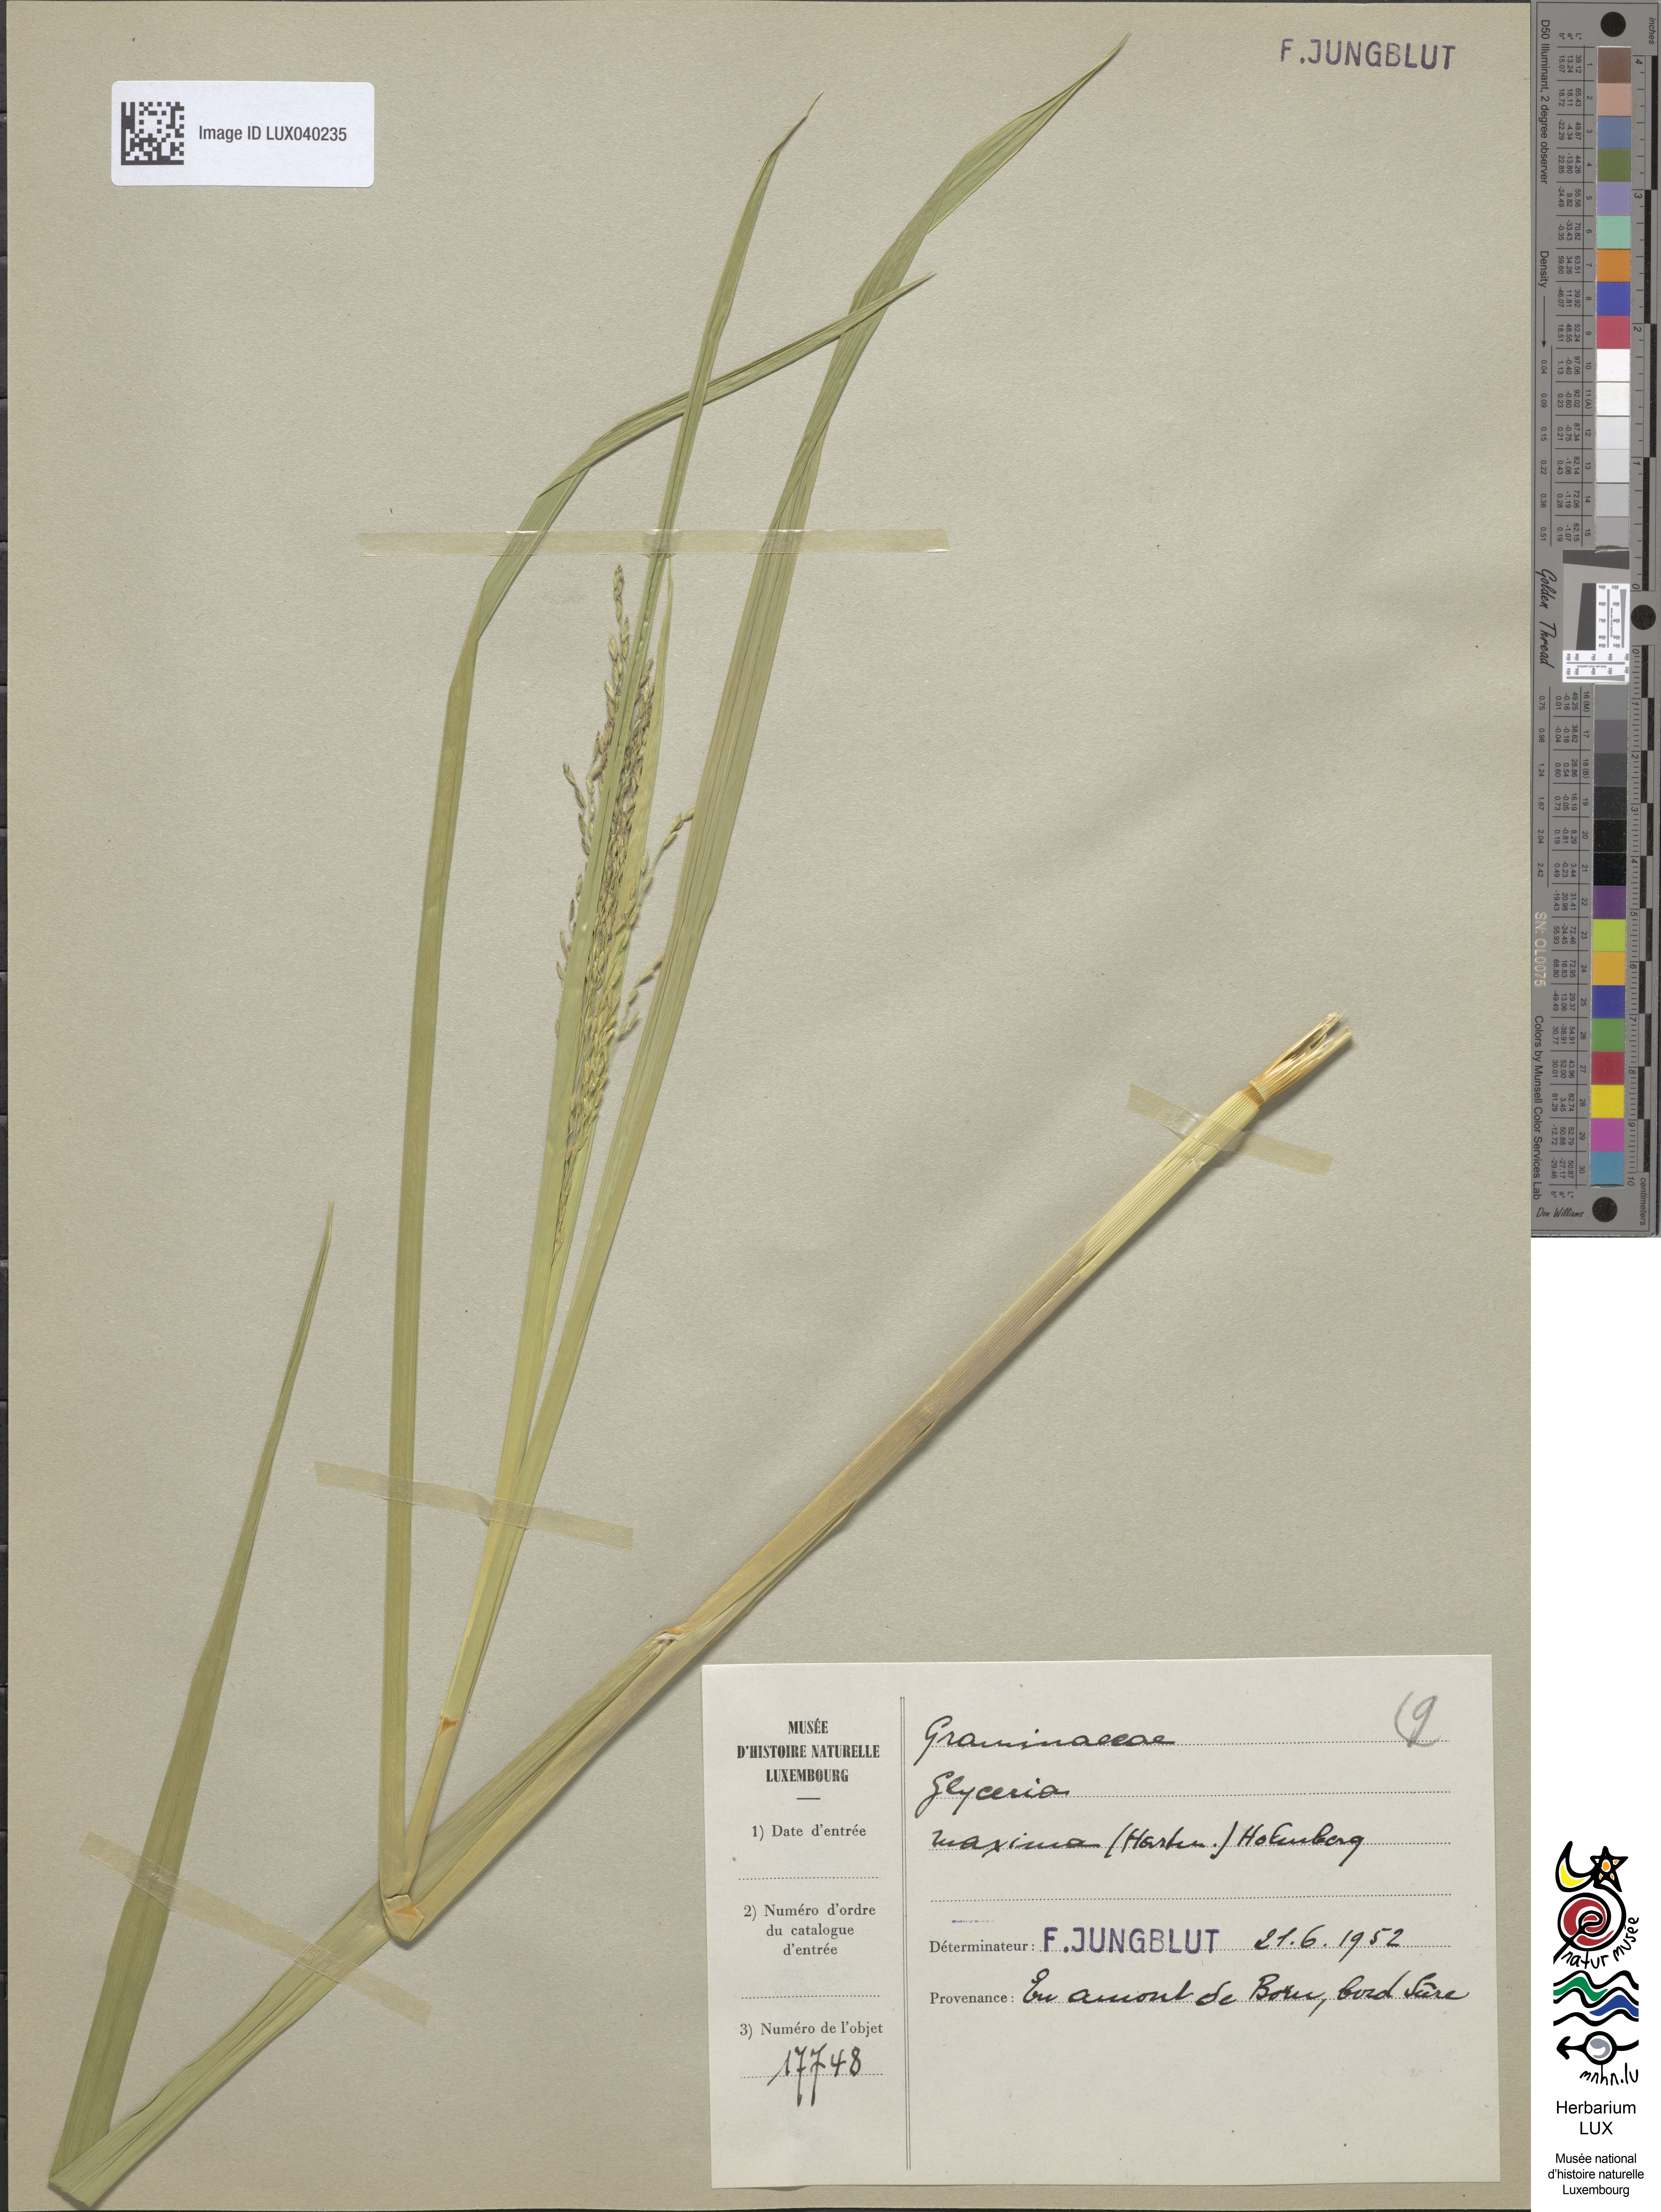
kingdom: Plantae
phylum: Tracheophyta
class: Liliopsida
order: Poales
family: Poaceae
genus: Glyceria
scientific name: Glyceria maxima
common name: Reed mannagrass
